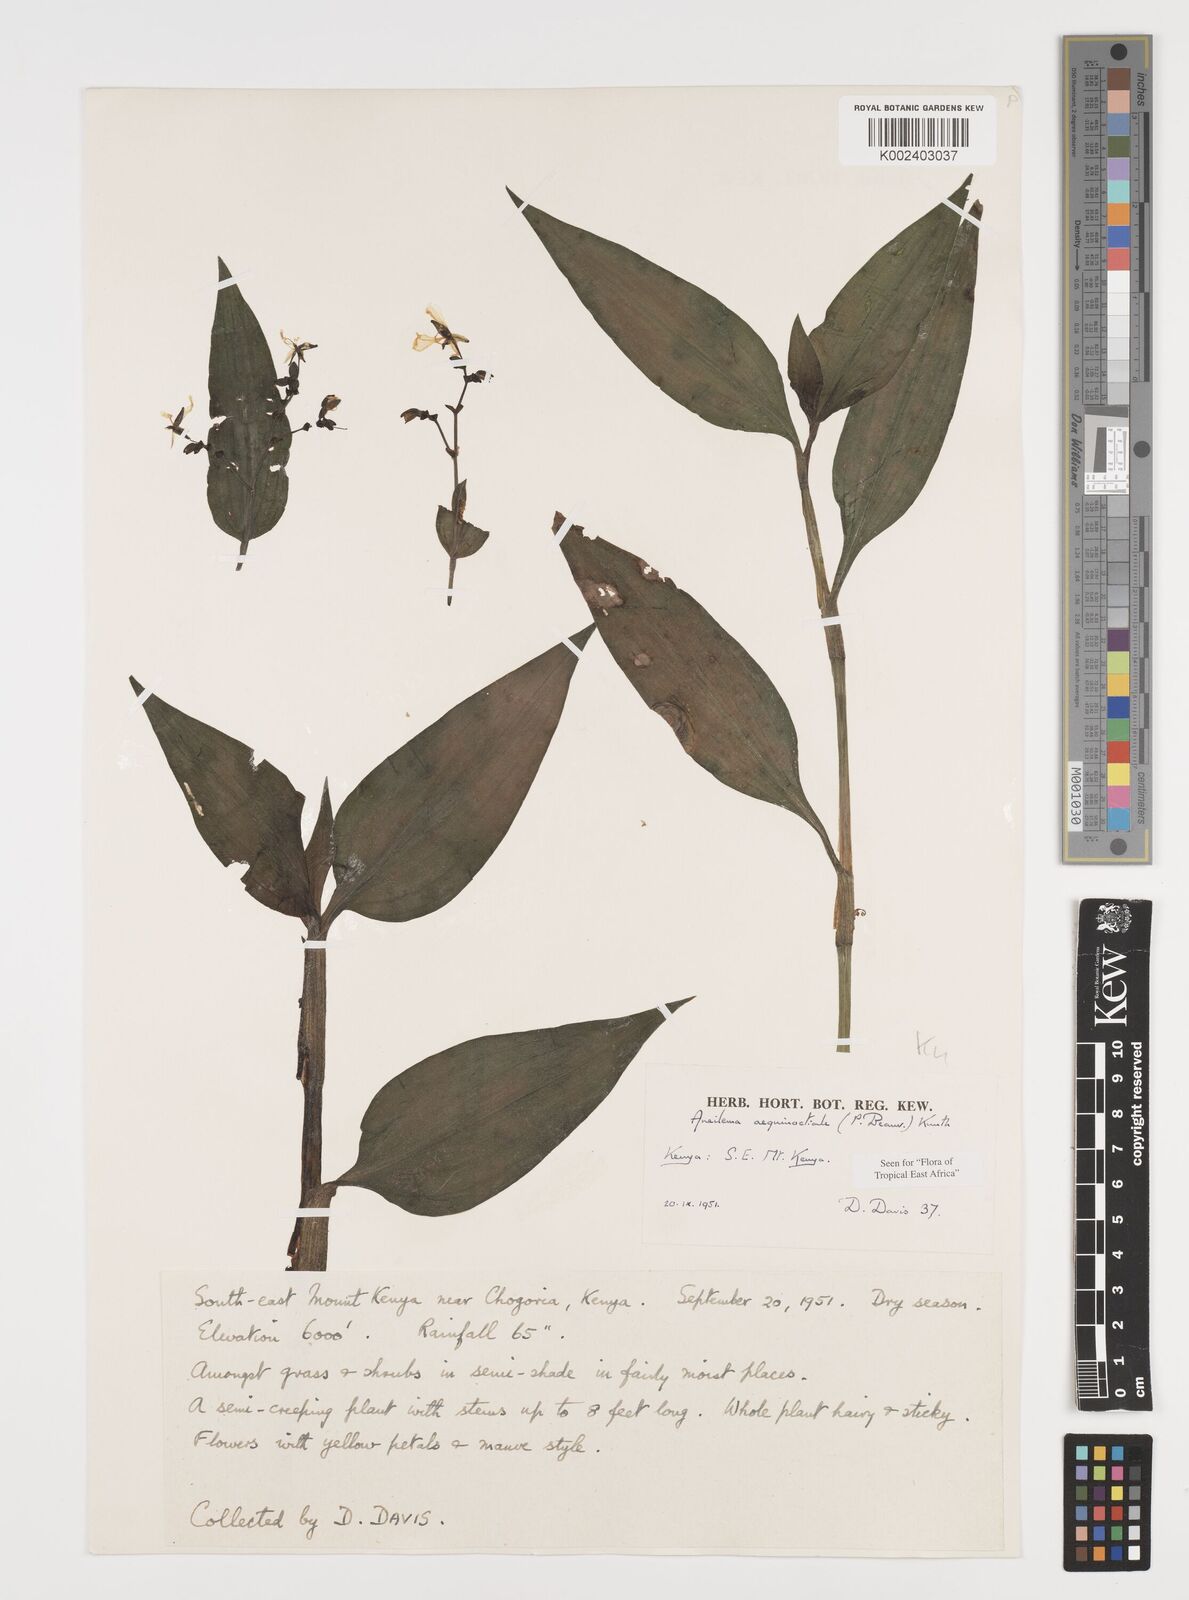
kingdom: Plantae
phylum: Tracheophyta
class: Liliopsida
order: Commelinales
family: Commelinaceae
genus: Aneilema
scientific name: Aneilema aequinoctiale
